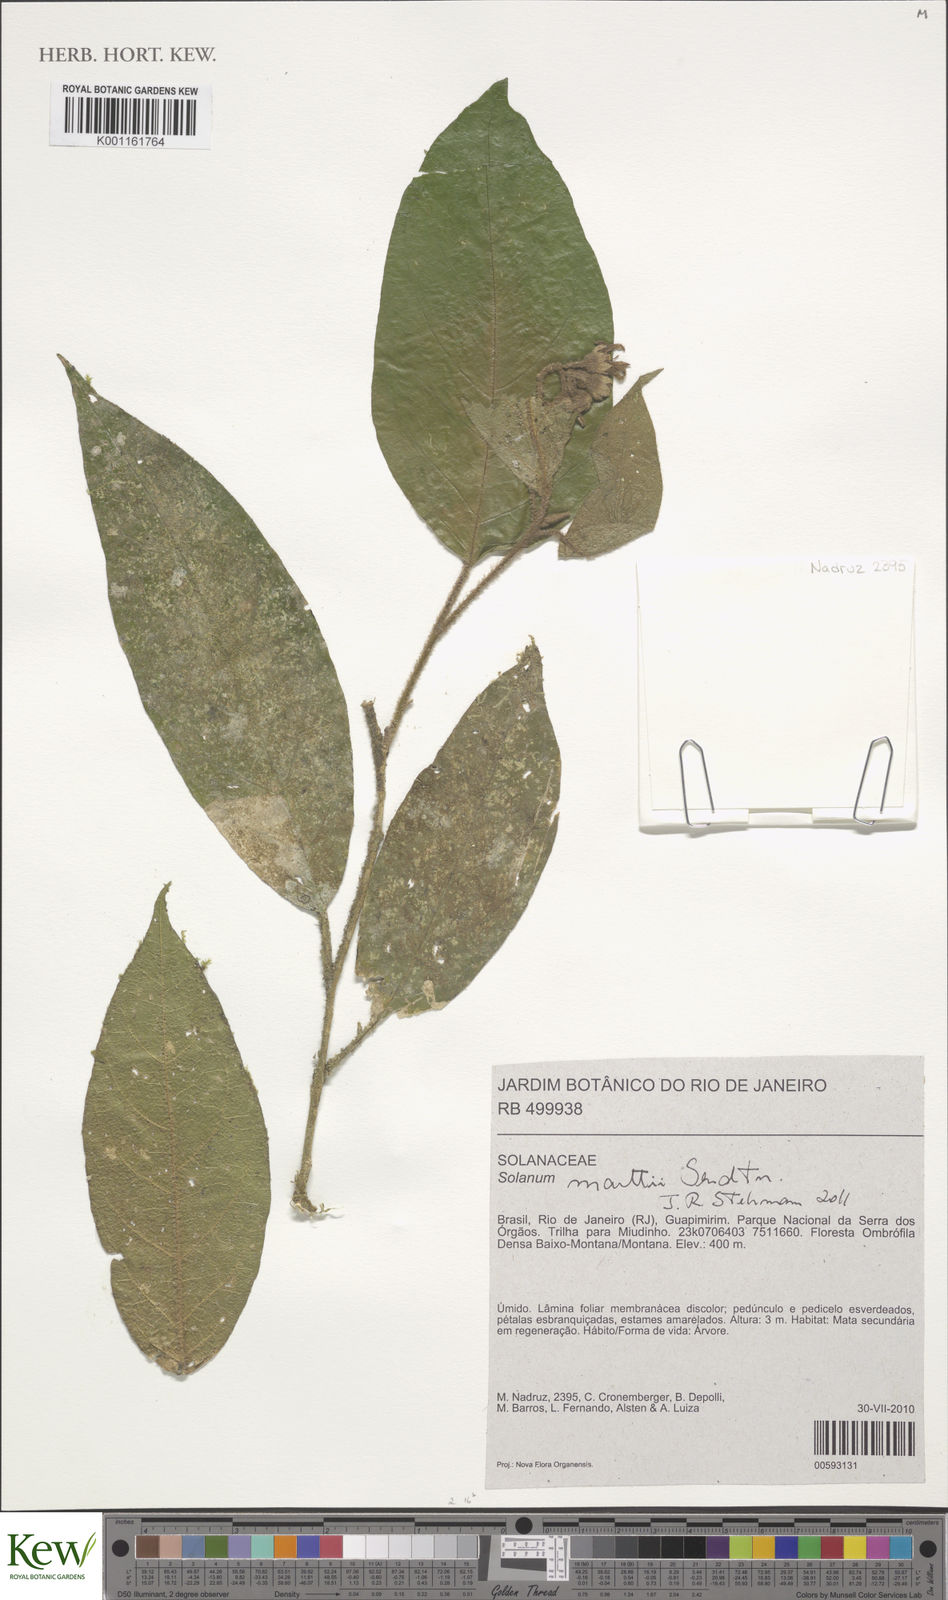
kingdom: Plantae
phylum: Tracheophyta
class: Magnoliopsida
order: Solanales
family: Solanaceae
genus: Solanum
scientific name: Solanum martii
